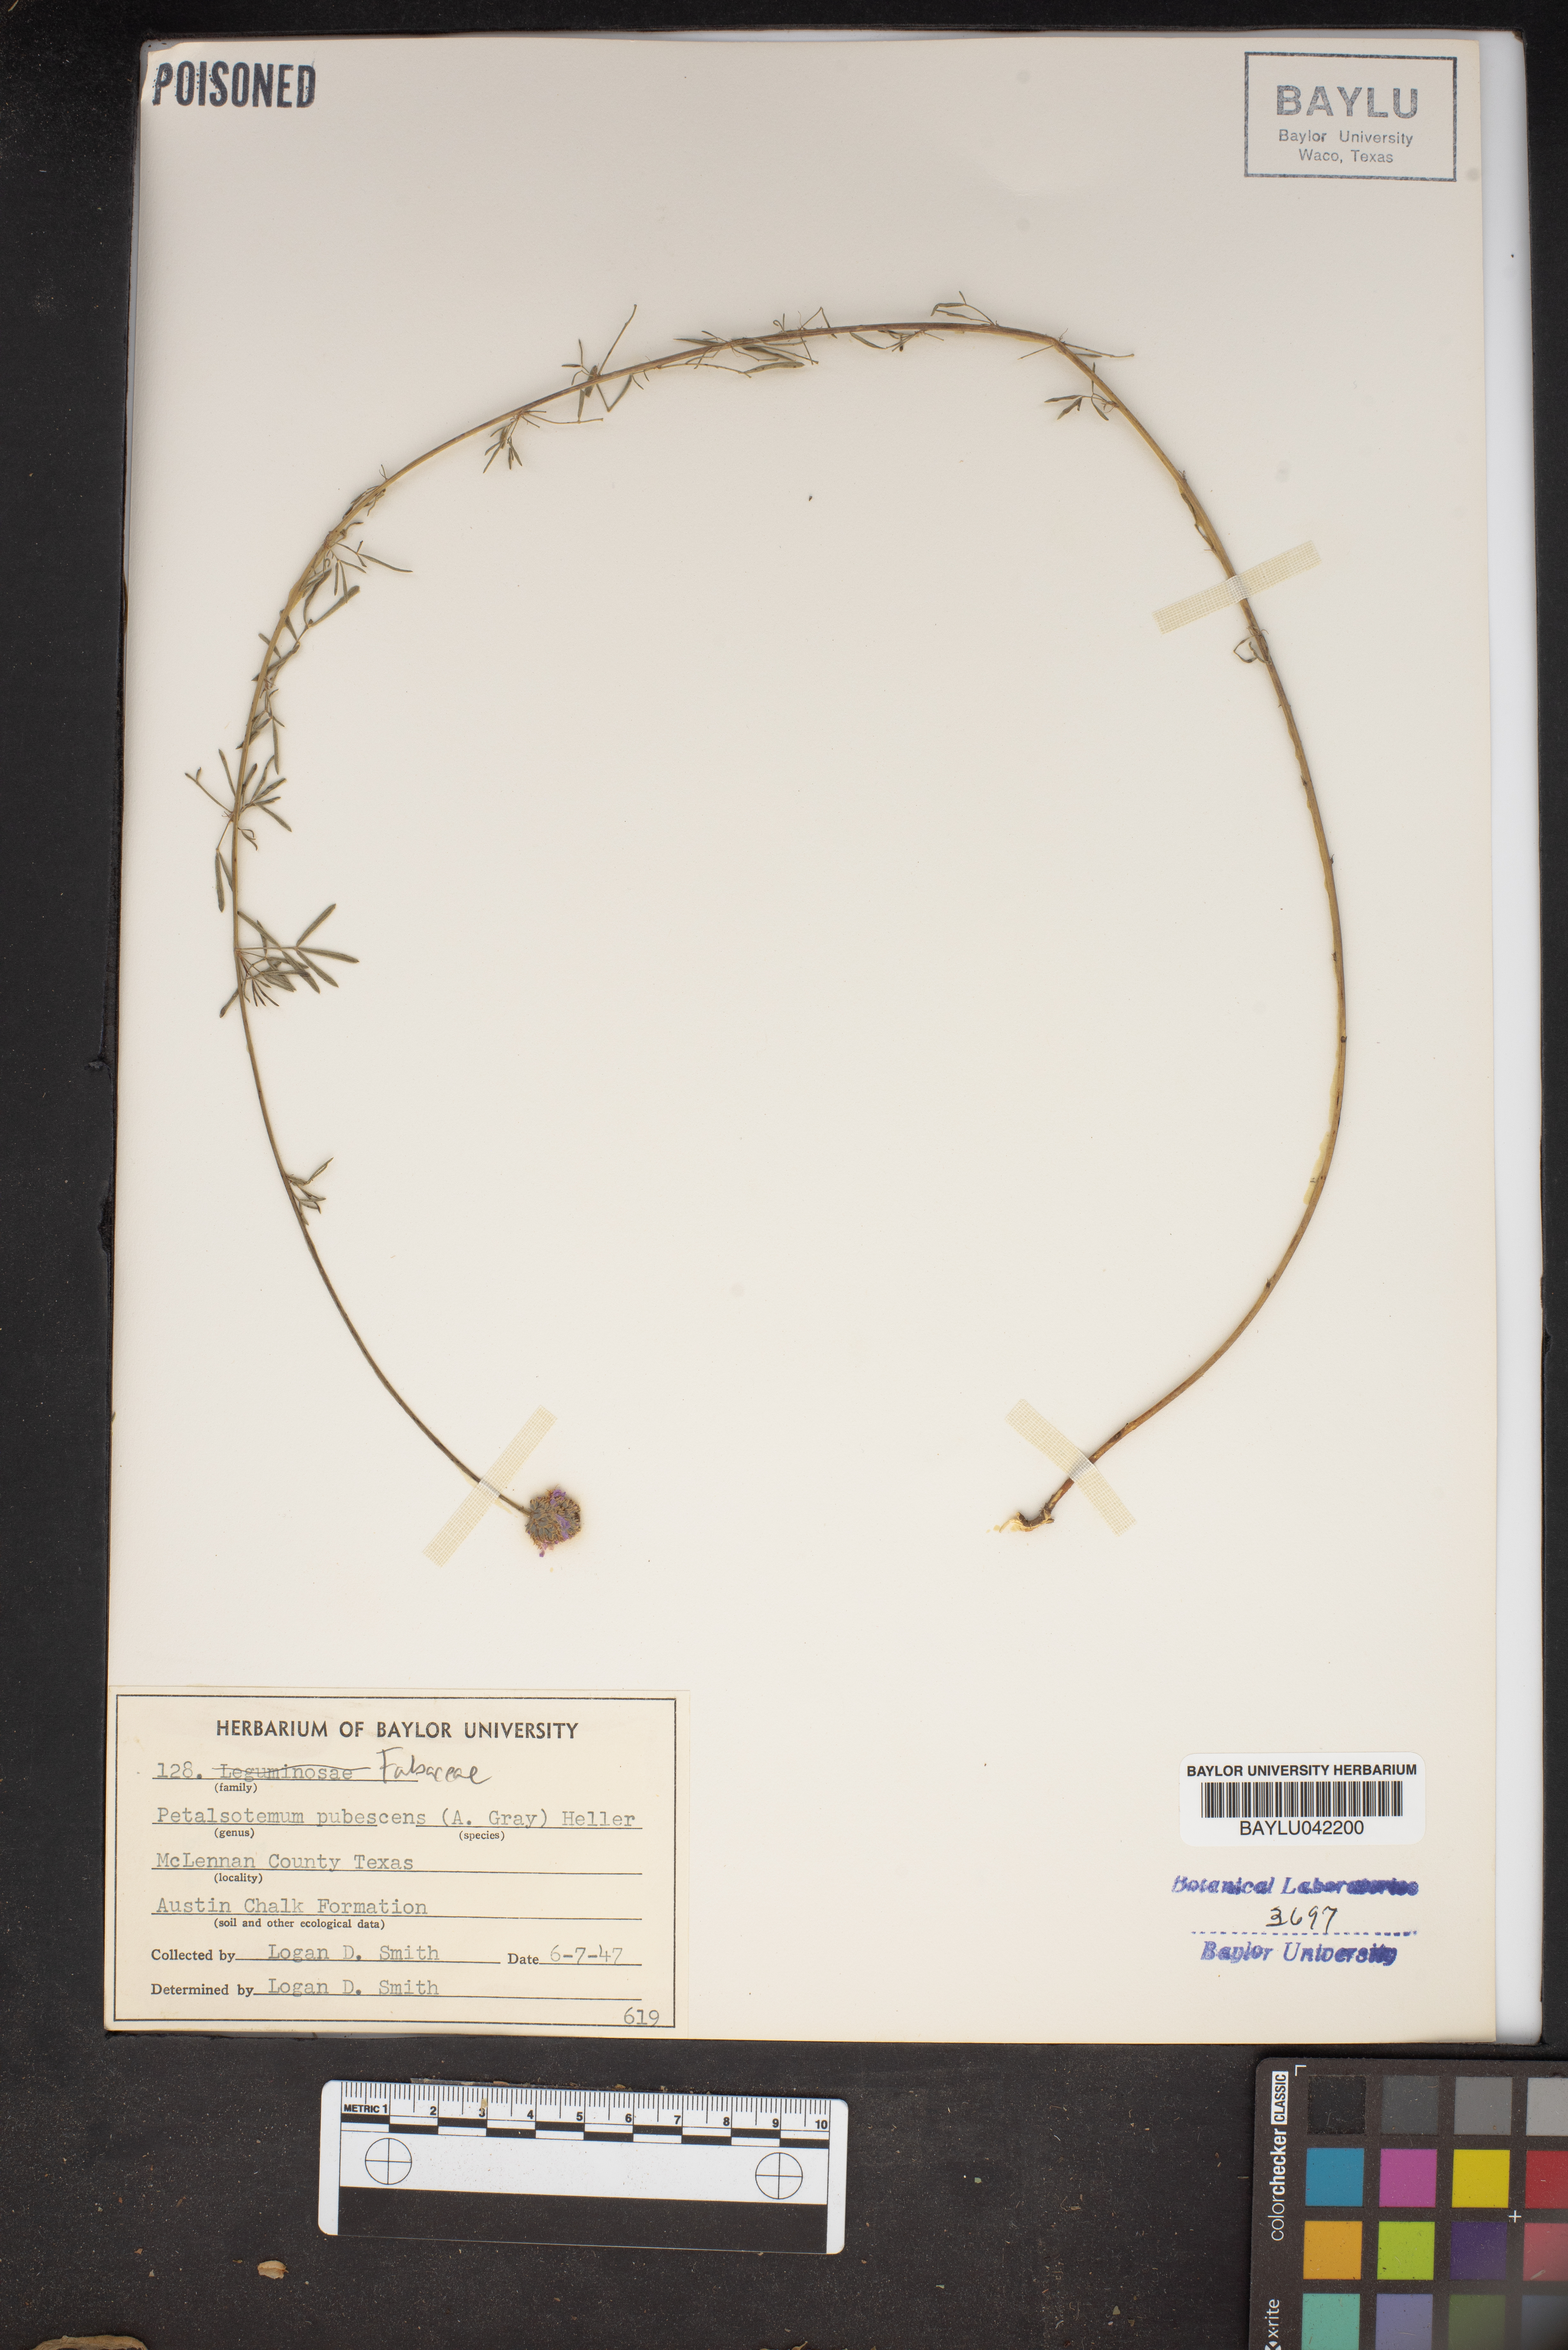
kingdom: Plantae
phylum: Tracheophyta
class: Magnoliopsida
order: Fabales
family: Fabaceae
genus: Dalea
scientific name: Dalea
